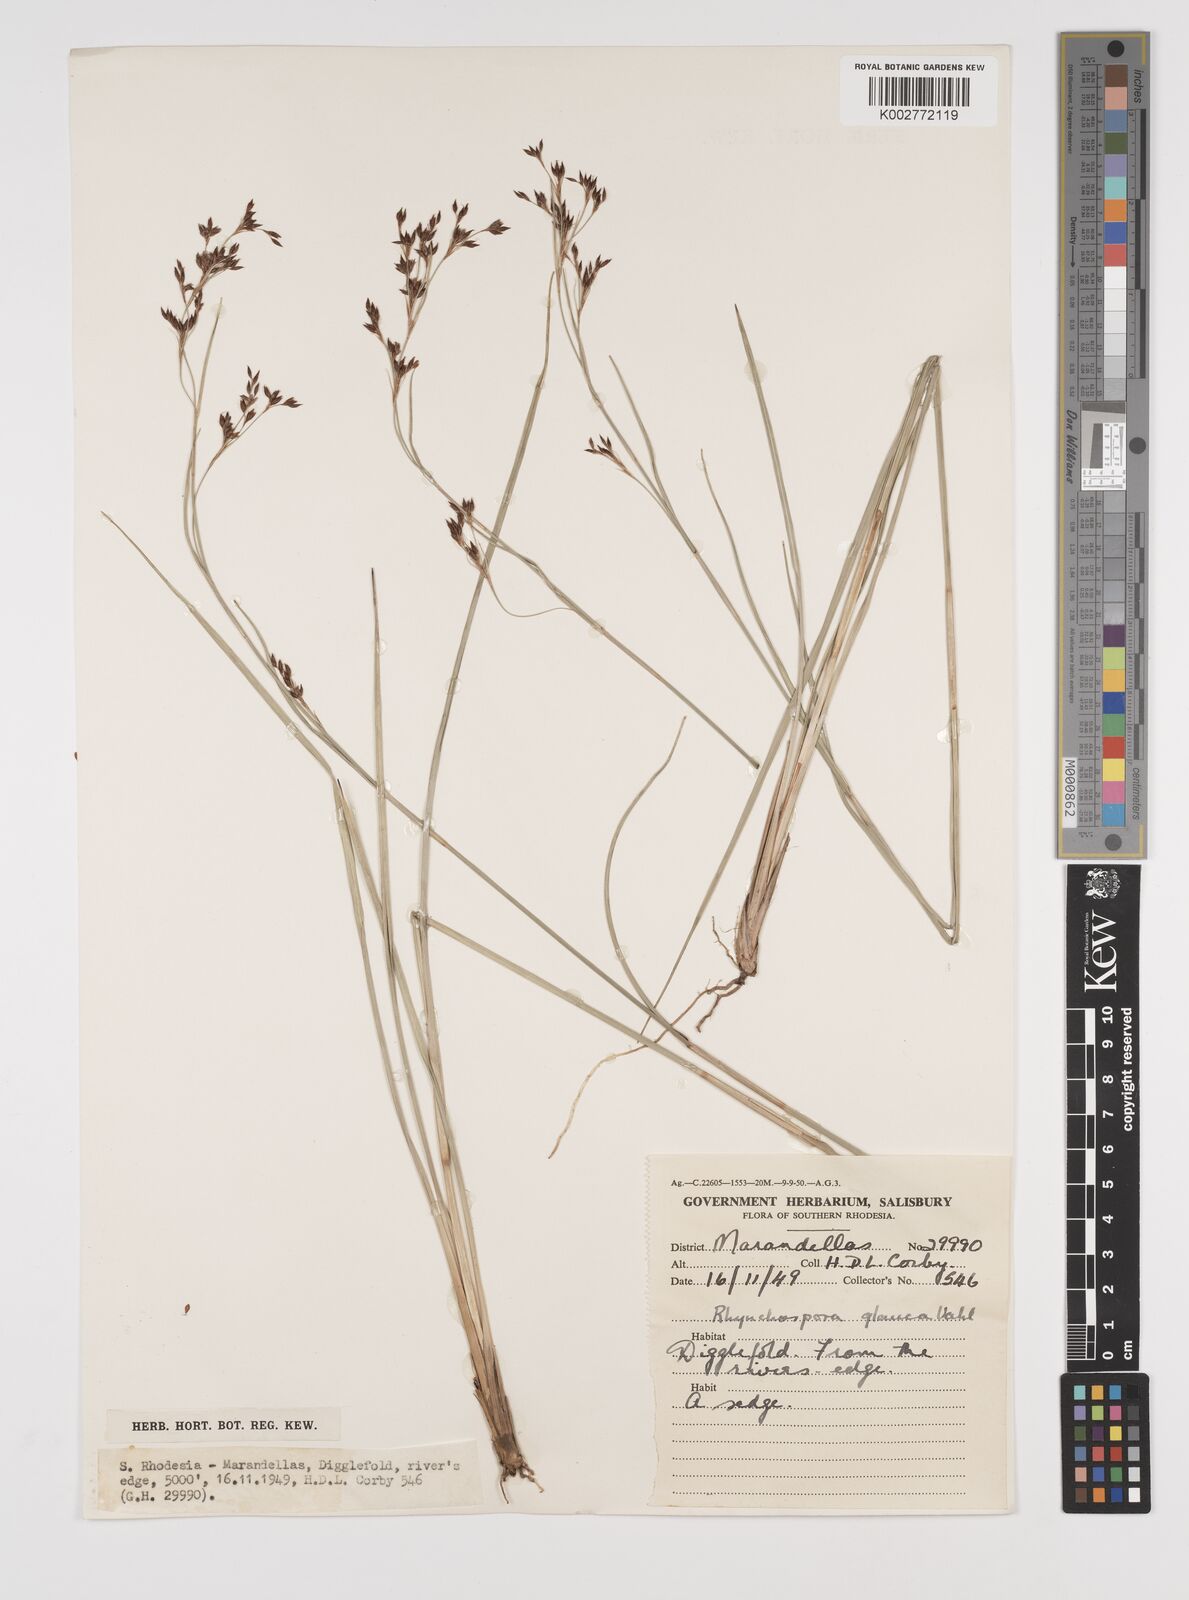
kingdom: Plantae
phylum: Tracheophyta
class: Liliopsida
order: Poales
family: Cyperaceae
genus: Rhynchospora
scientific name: Rhynchospora rugosa
